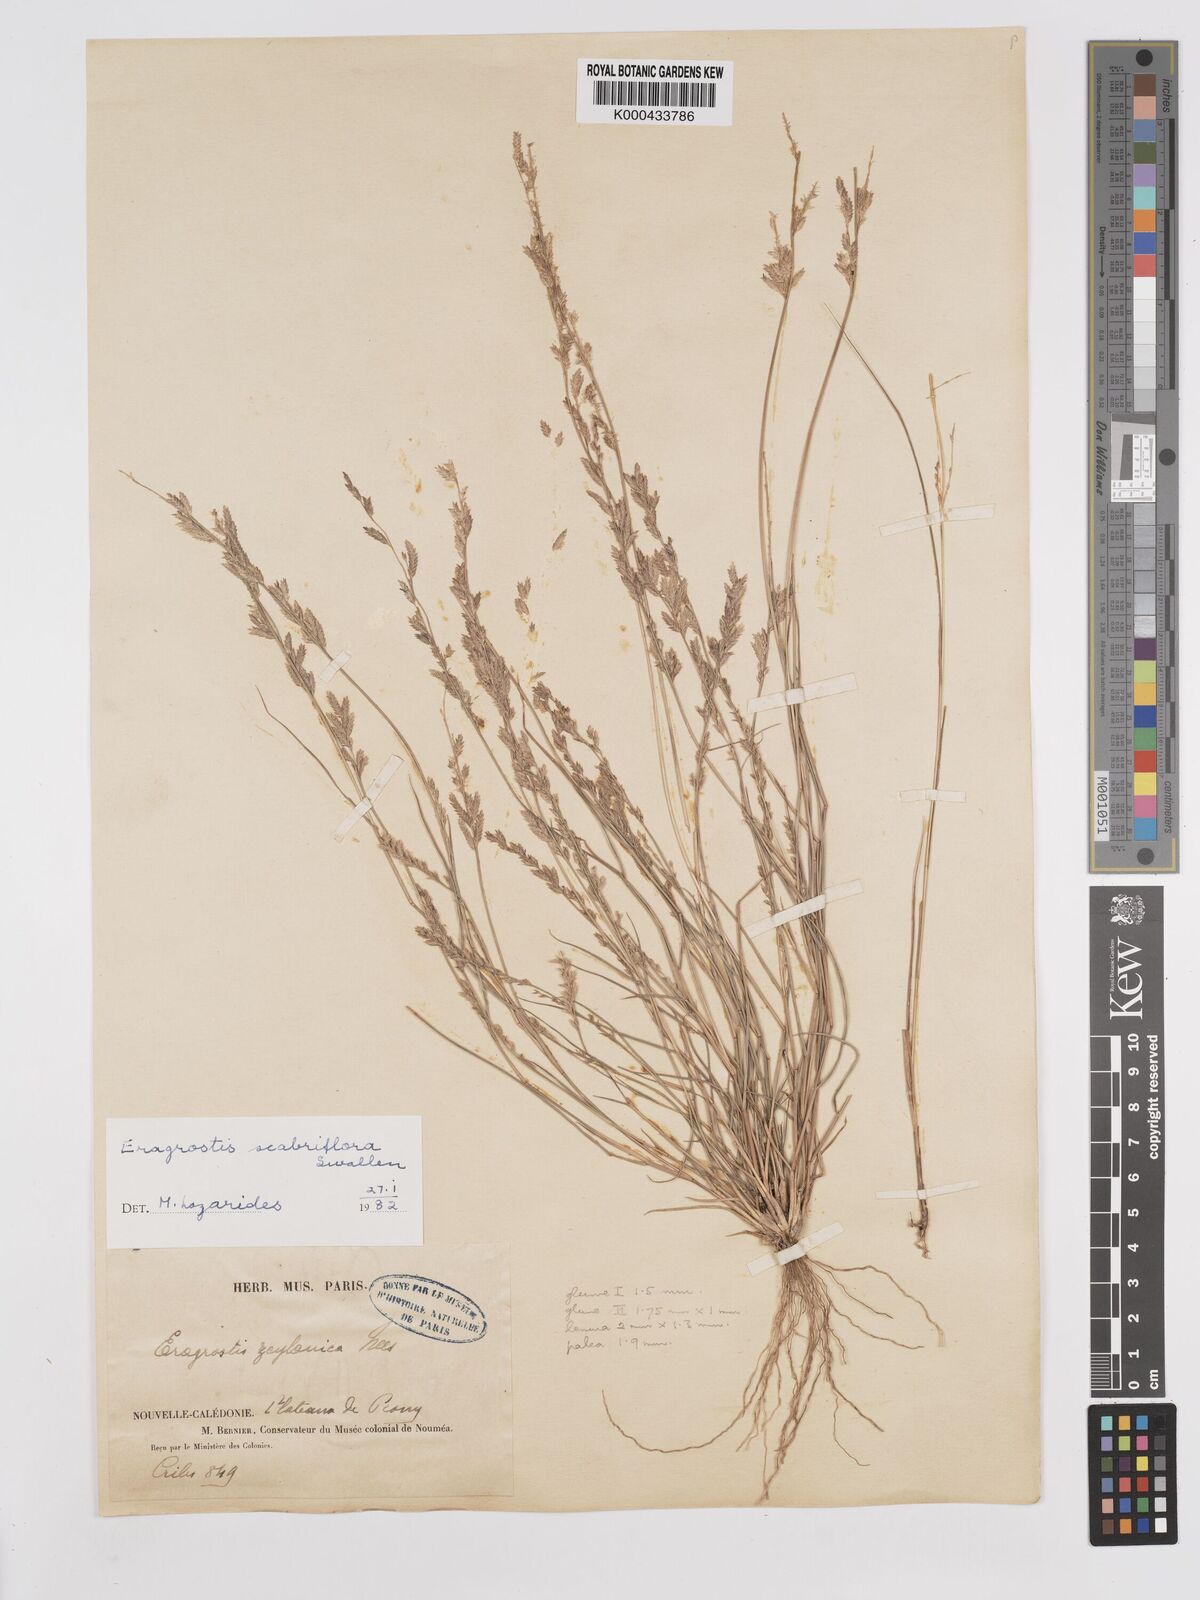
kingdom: Plantae
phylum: Tracheophyta
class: Liliopsida
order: Poales
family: Poaceae
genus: Eragrostis
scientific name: Eragrostis scabriflora
